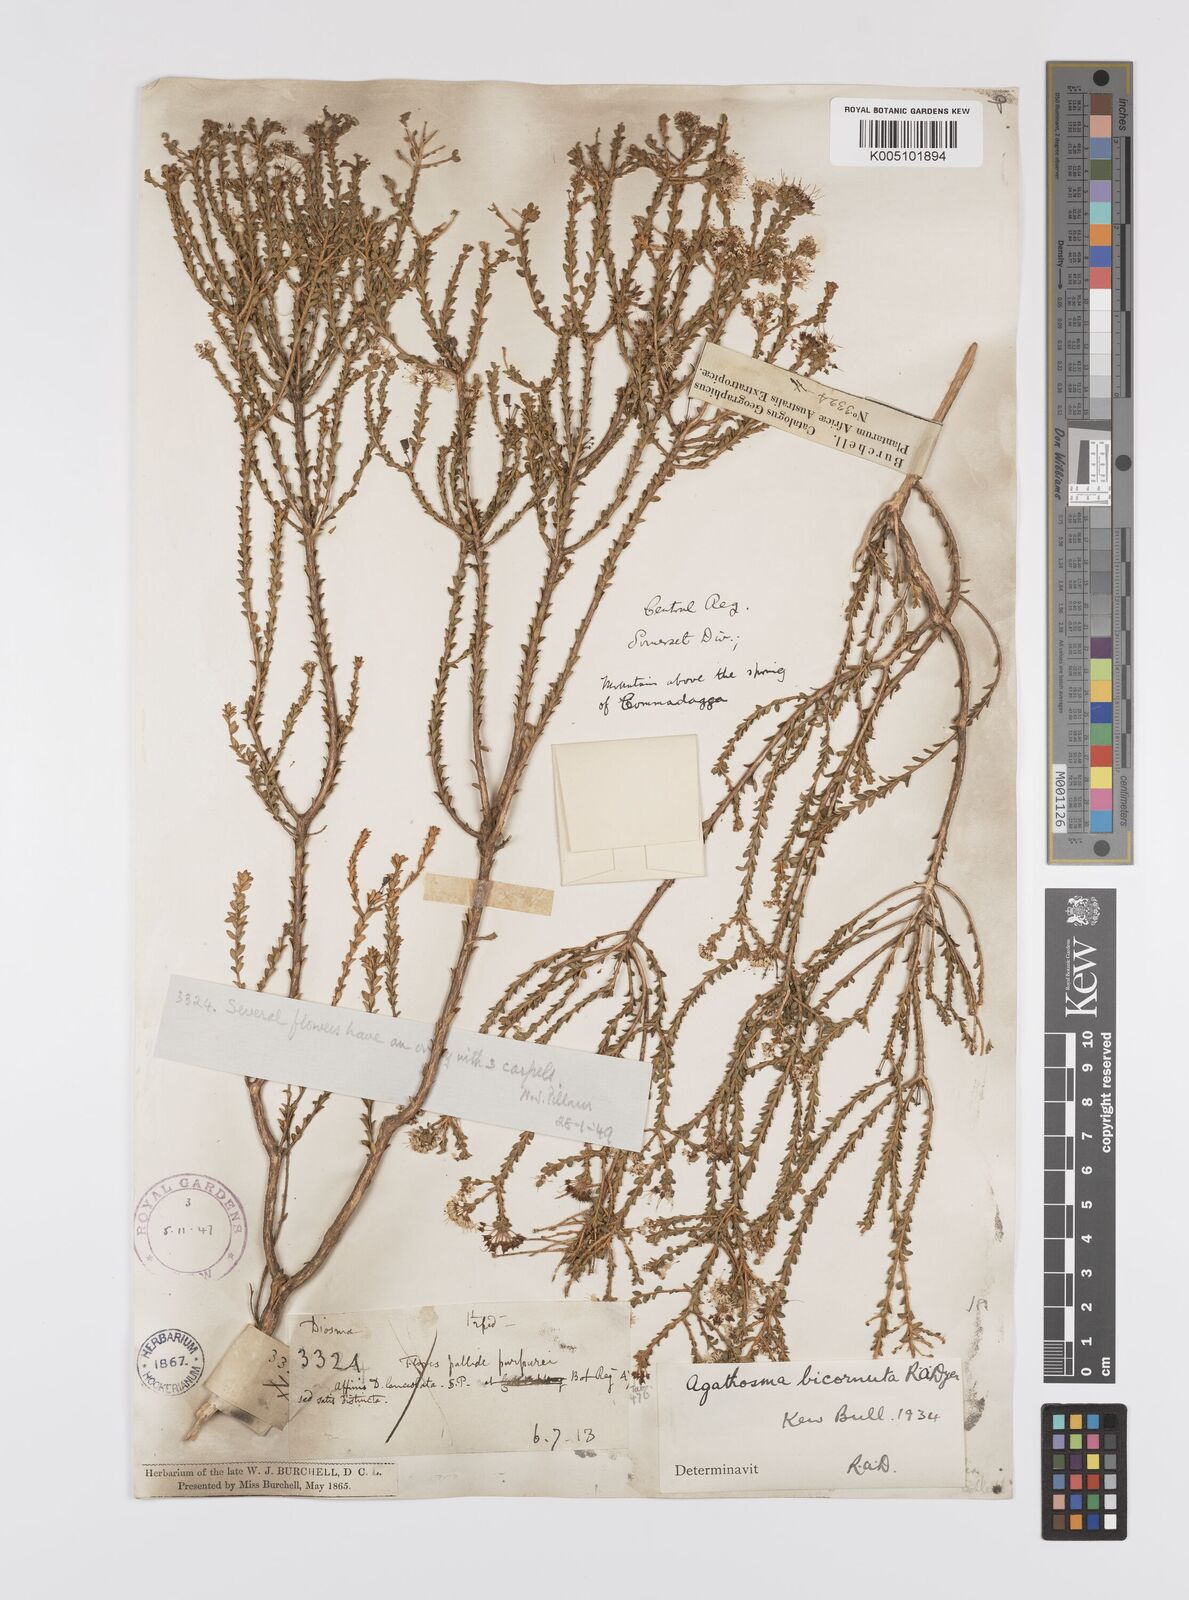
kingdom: Plantae
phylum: Tracheophyta
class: Magnoliopsida
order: Sapindales
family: Rutaceae
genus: Agathosma
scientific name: Agathosma bicornuta
